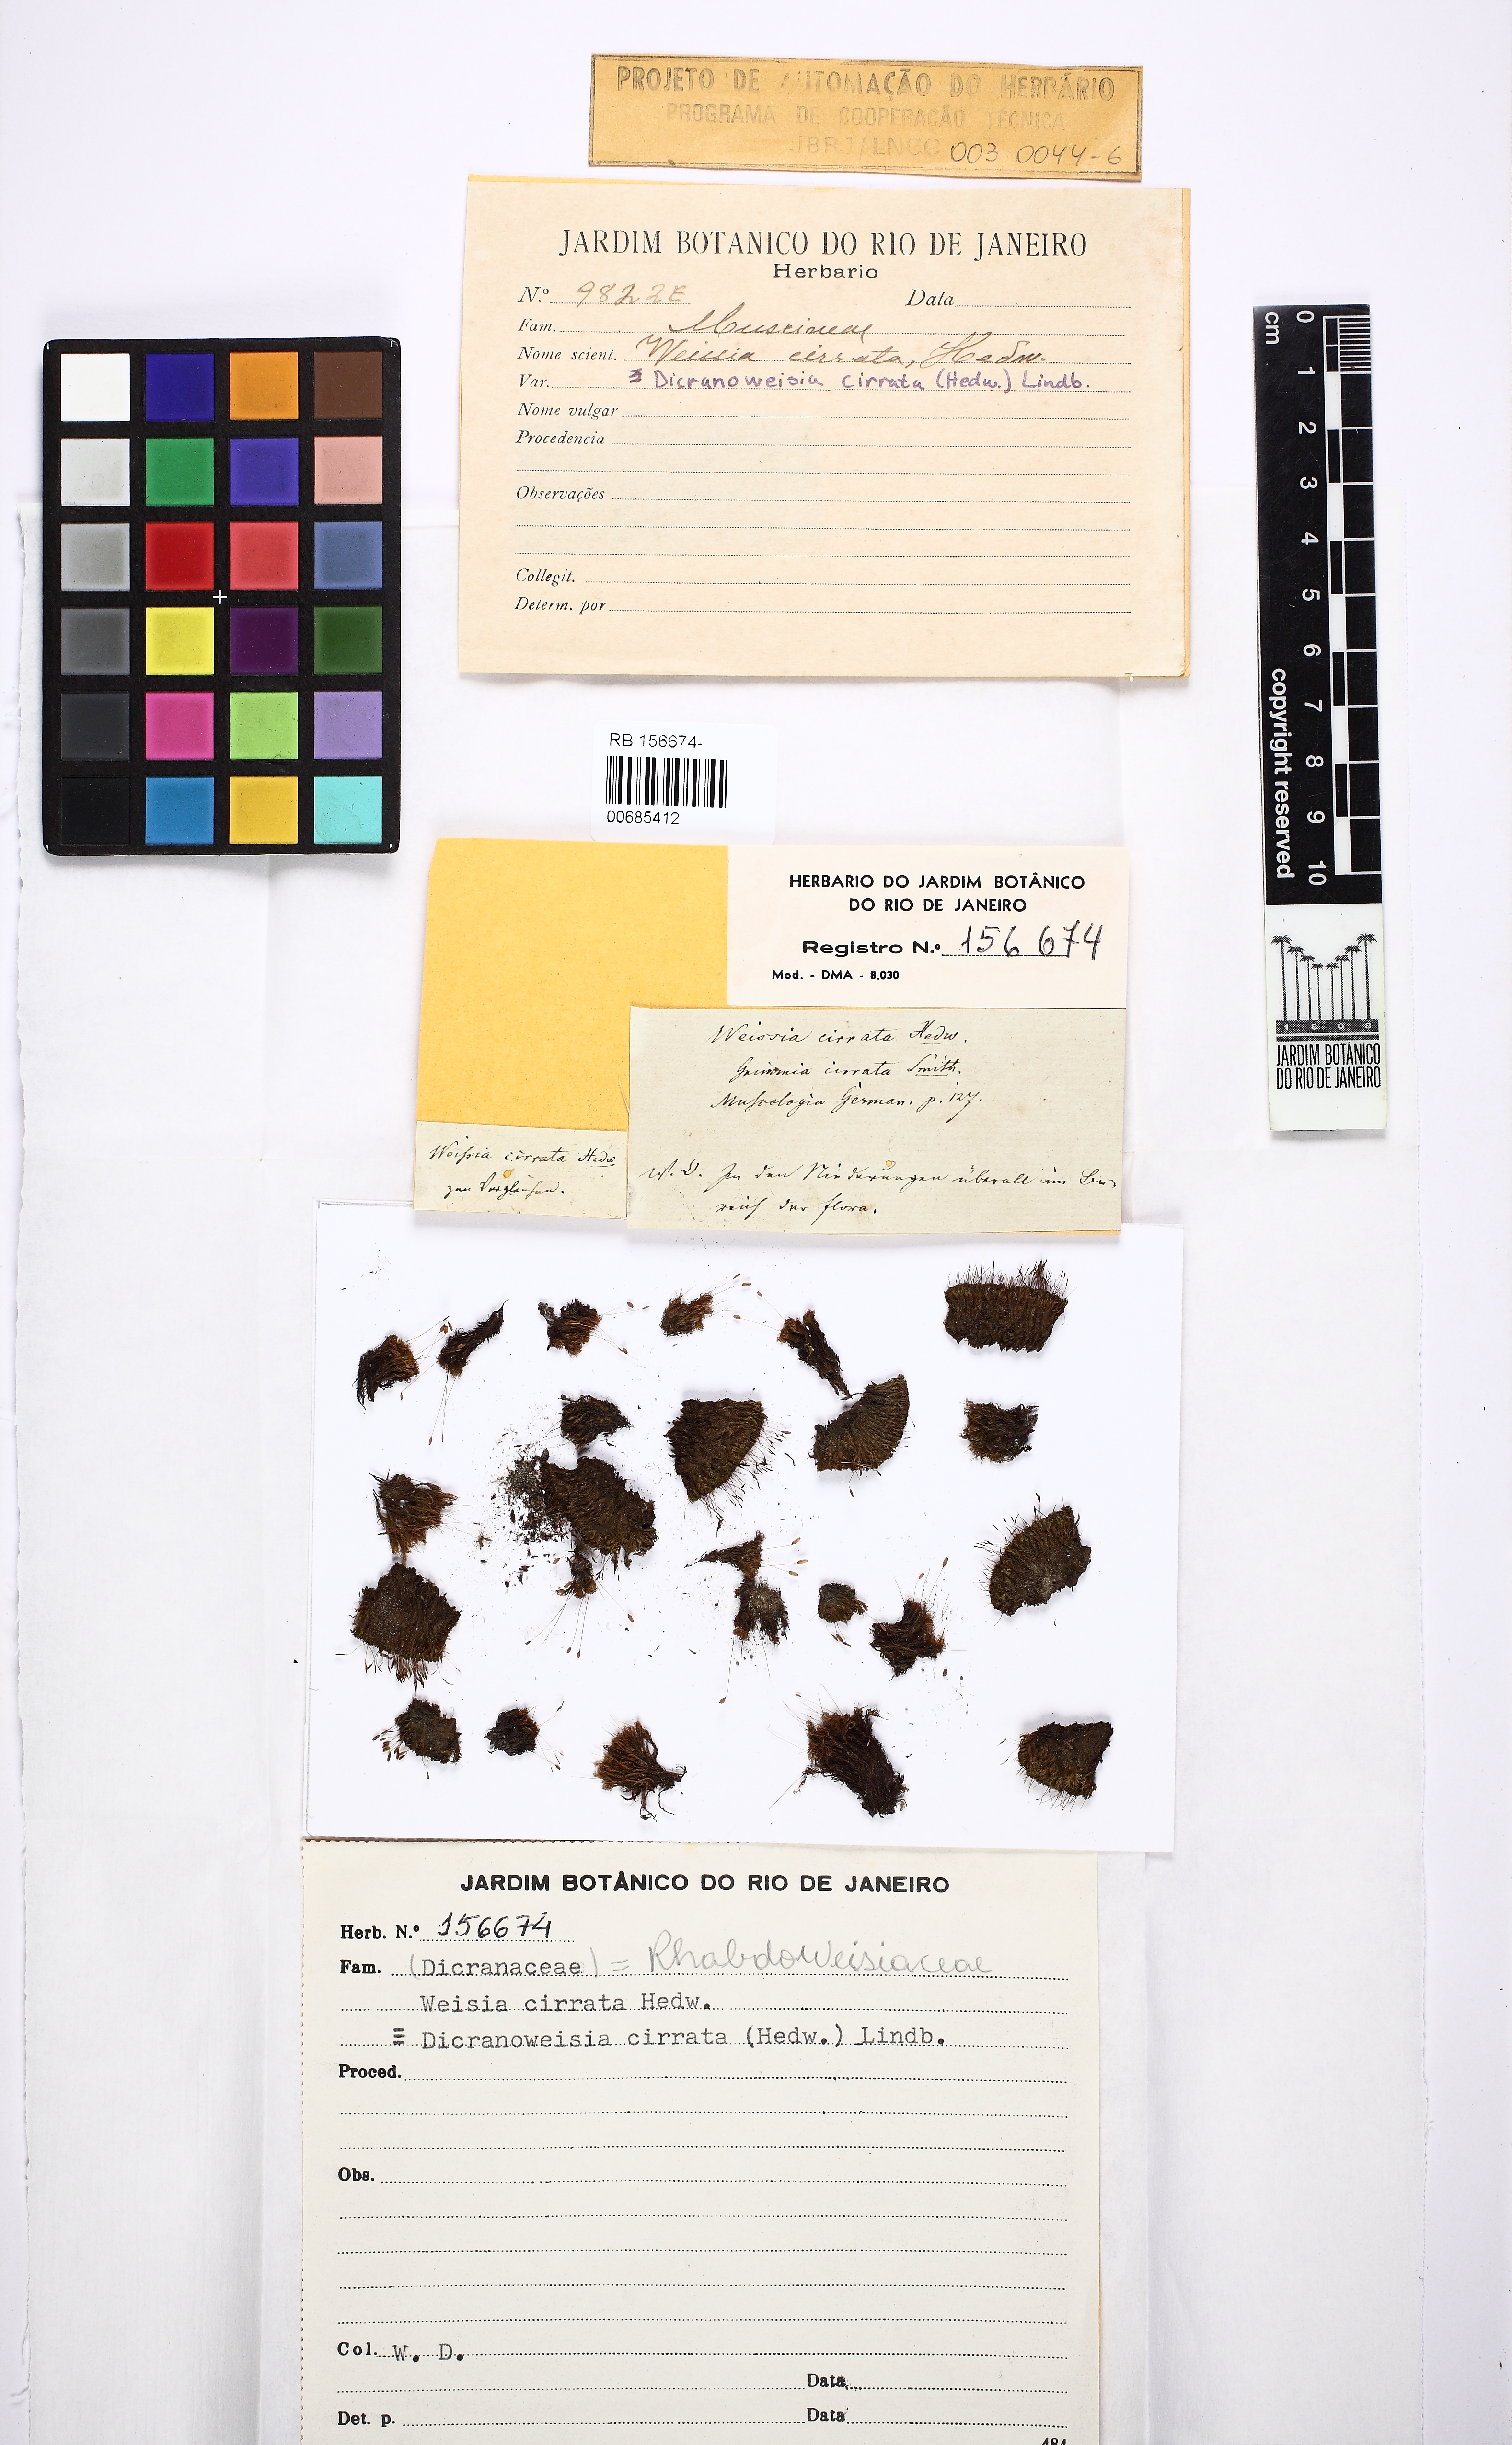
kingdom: Plantae
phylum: Bryophyta
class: Bryopsida
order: Dicranales
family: Rhabdoweisiaceae
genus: Dicranoweisia
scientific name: Dicranoweisia cirrata
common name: Common pincushion
